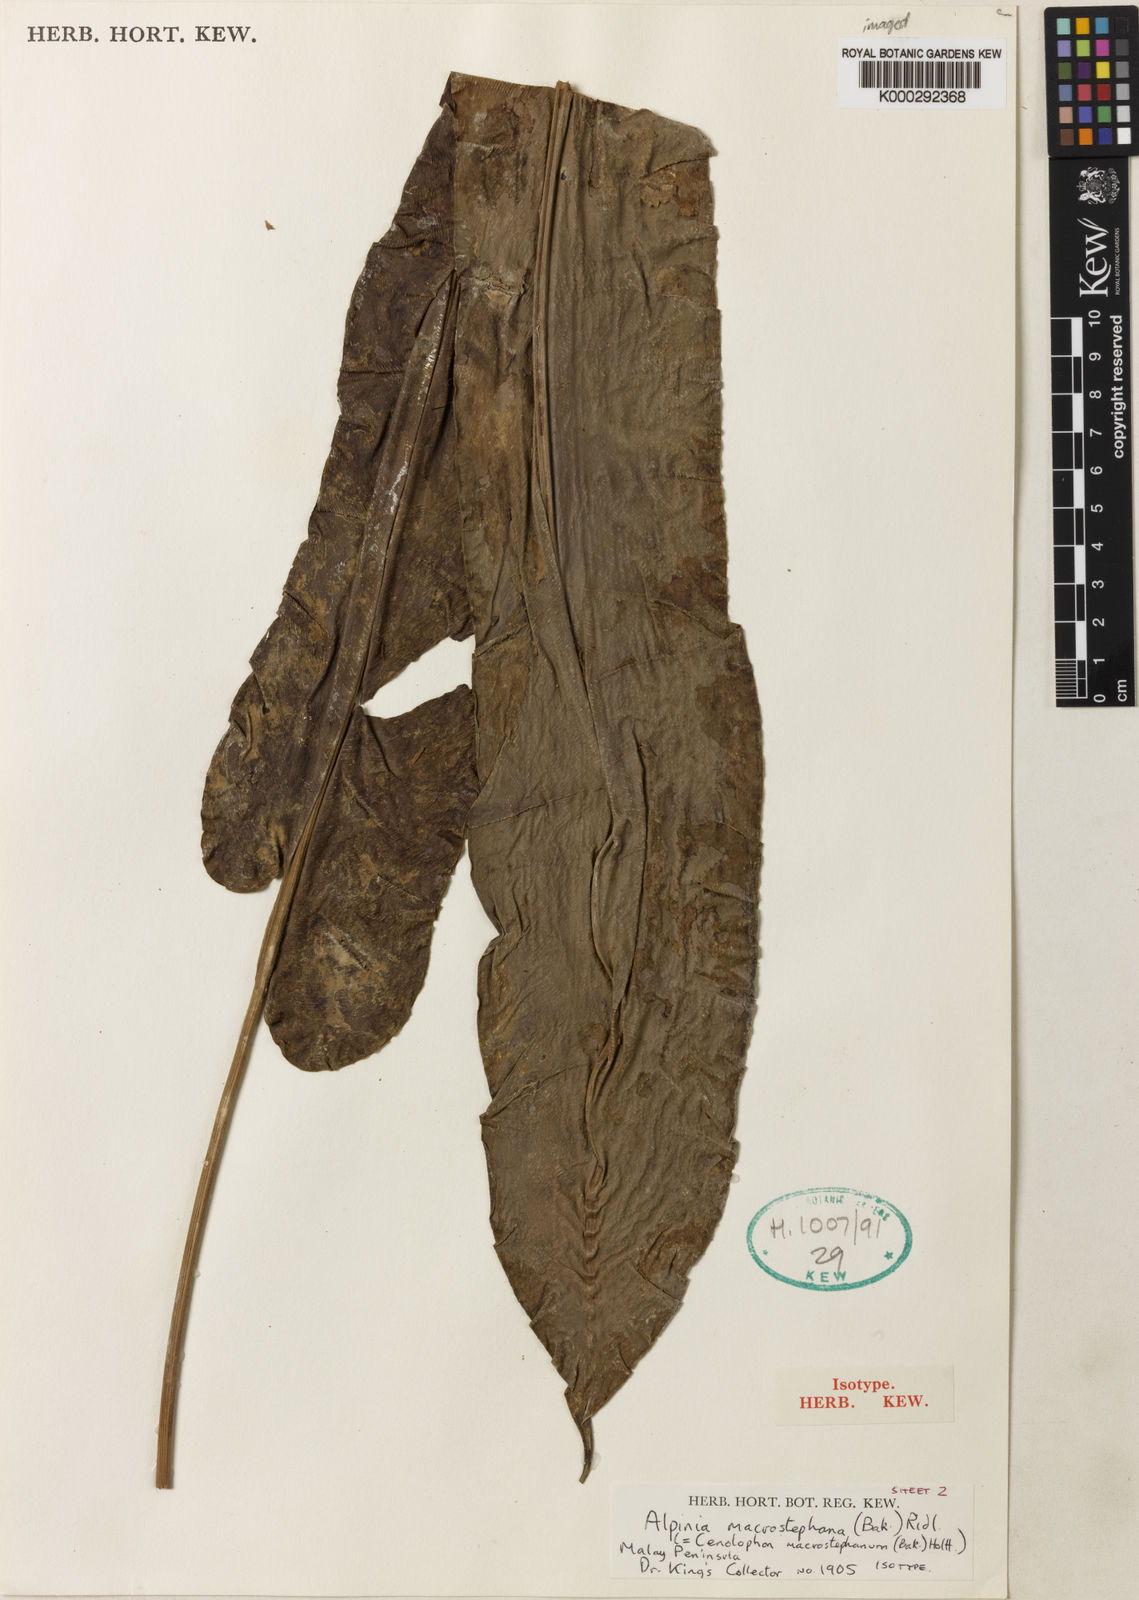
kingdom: Plantae
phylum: Tracheophyta
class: Liliopsida
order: Zingiberales
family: Zingiberaceae
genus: Alpinia
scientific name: Alpinia macrostephana
